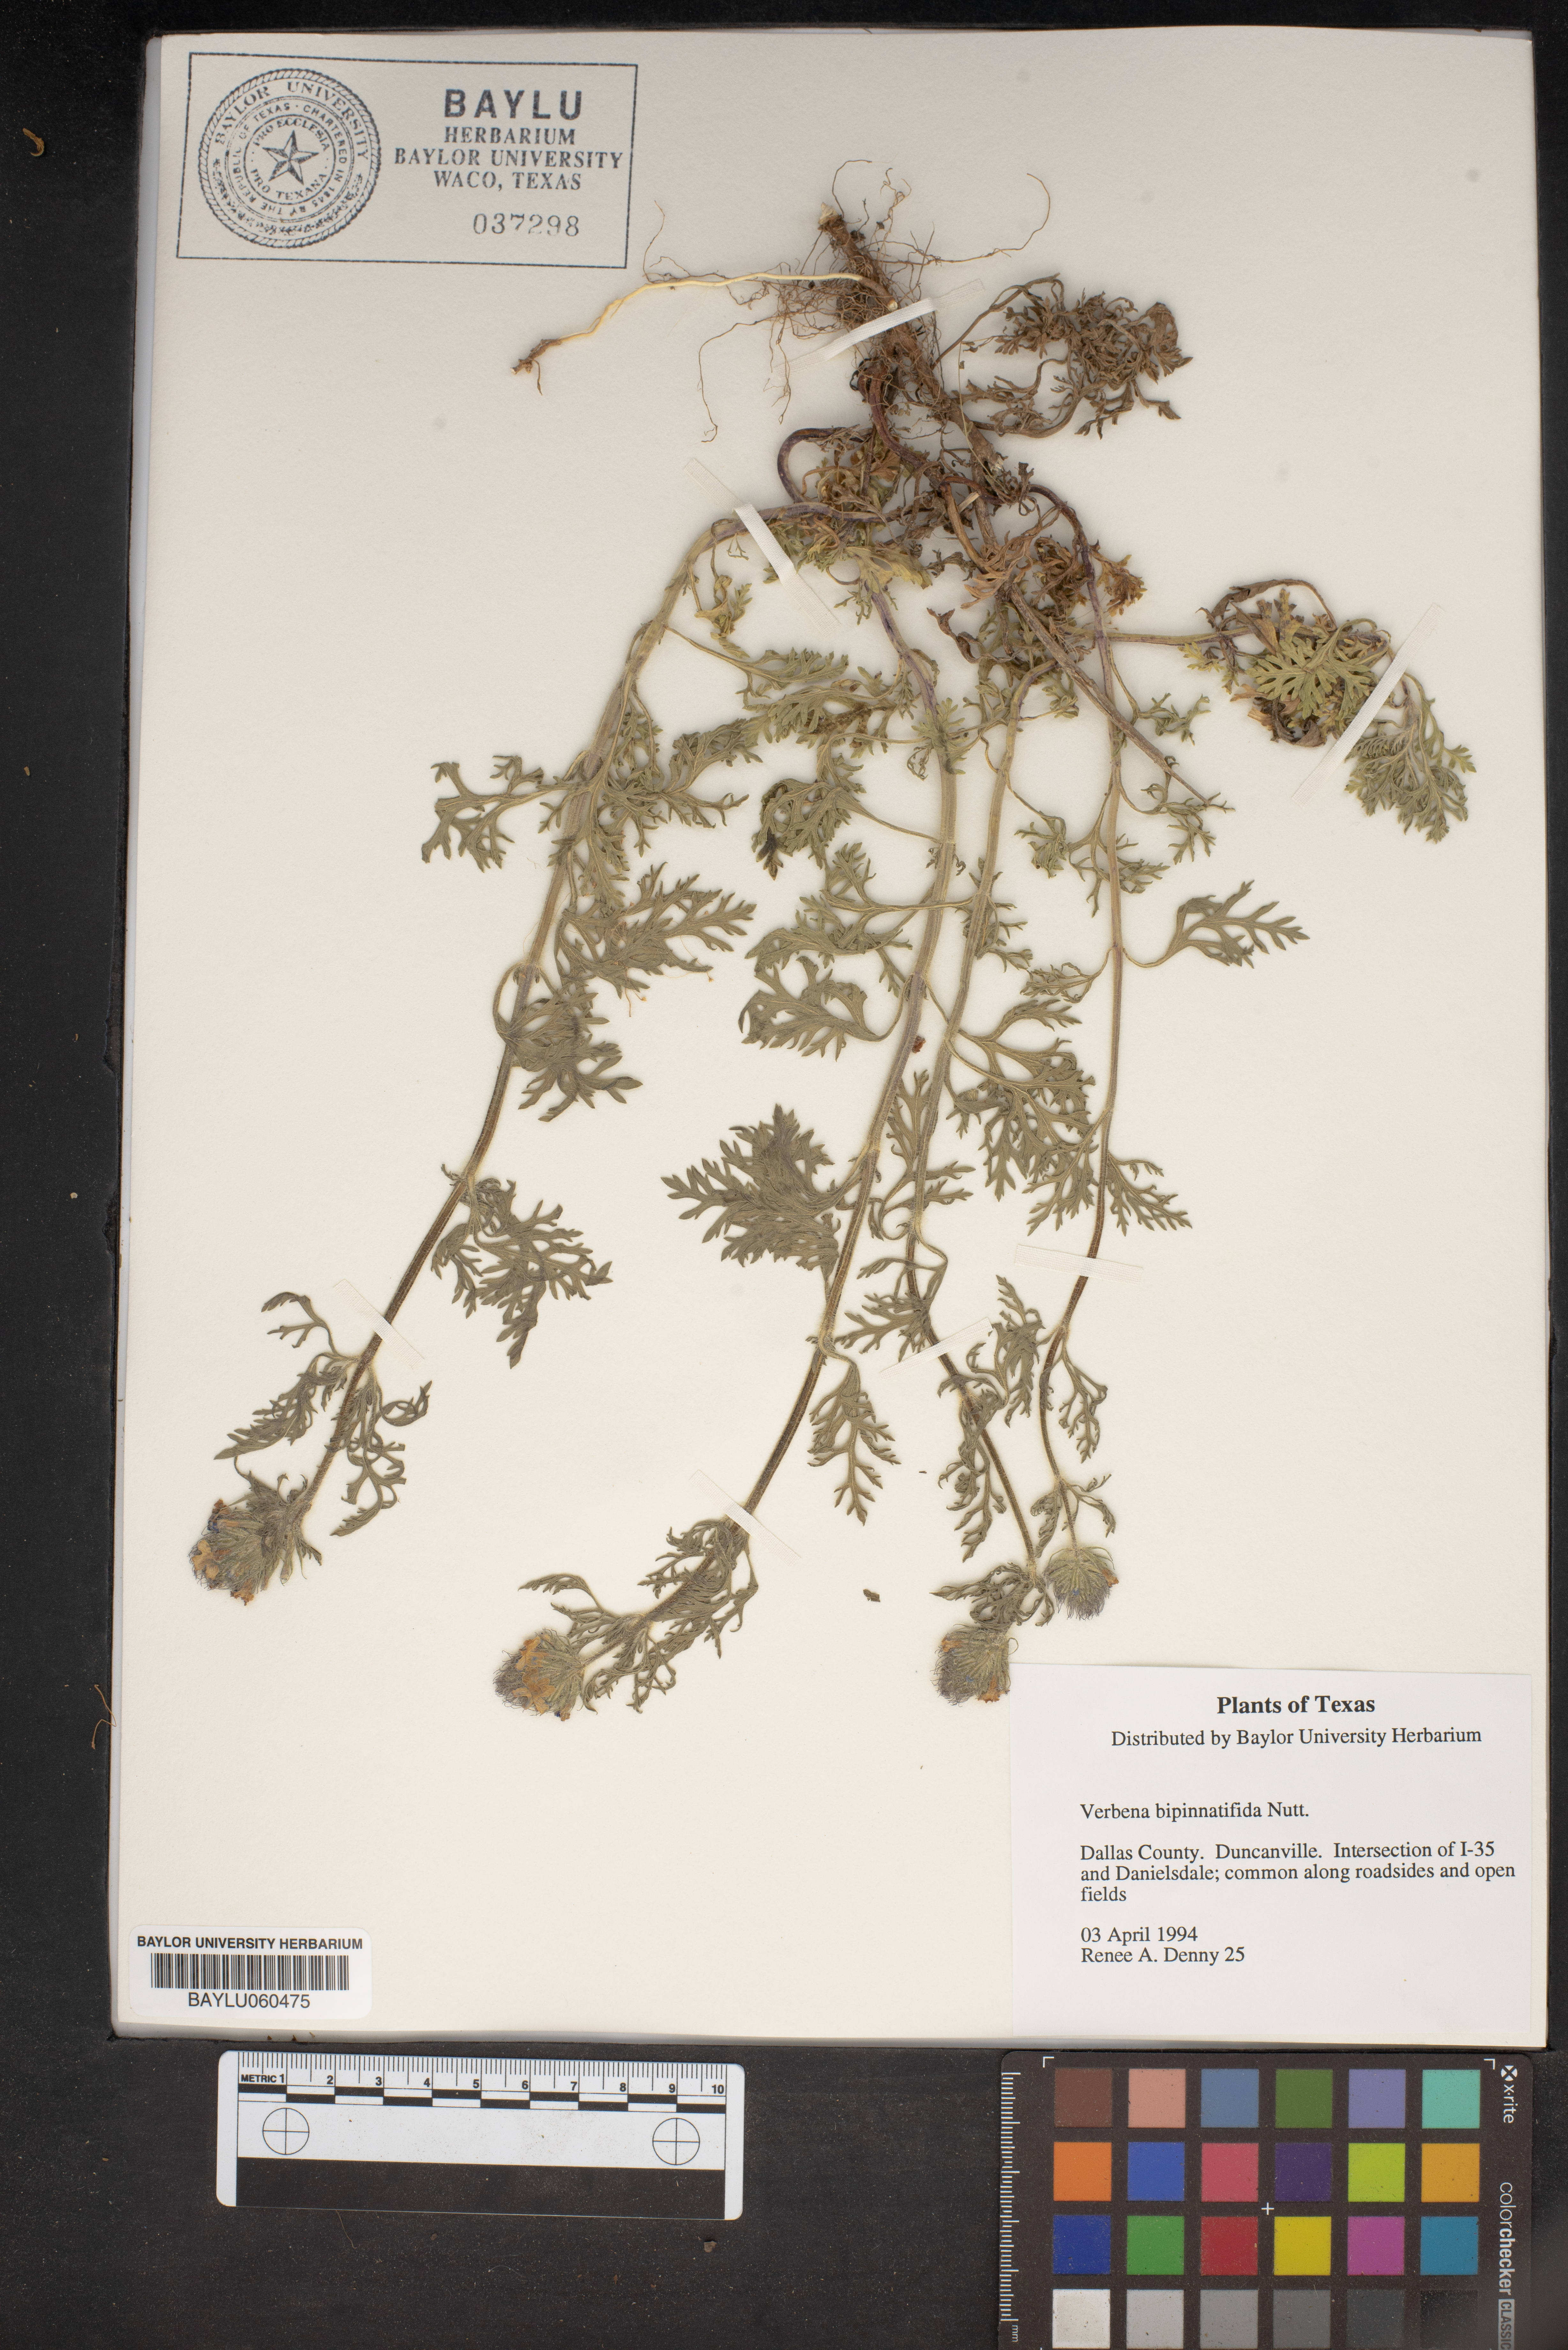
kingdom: Plantae
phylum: Tracheophyta
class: Magnoliopsida
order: Lamiales
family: Verbenaceae
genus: Verbena
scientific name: Verbena bipinnatifida
